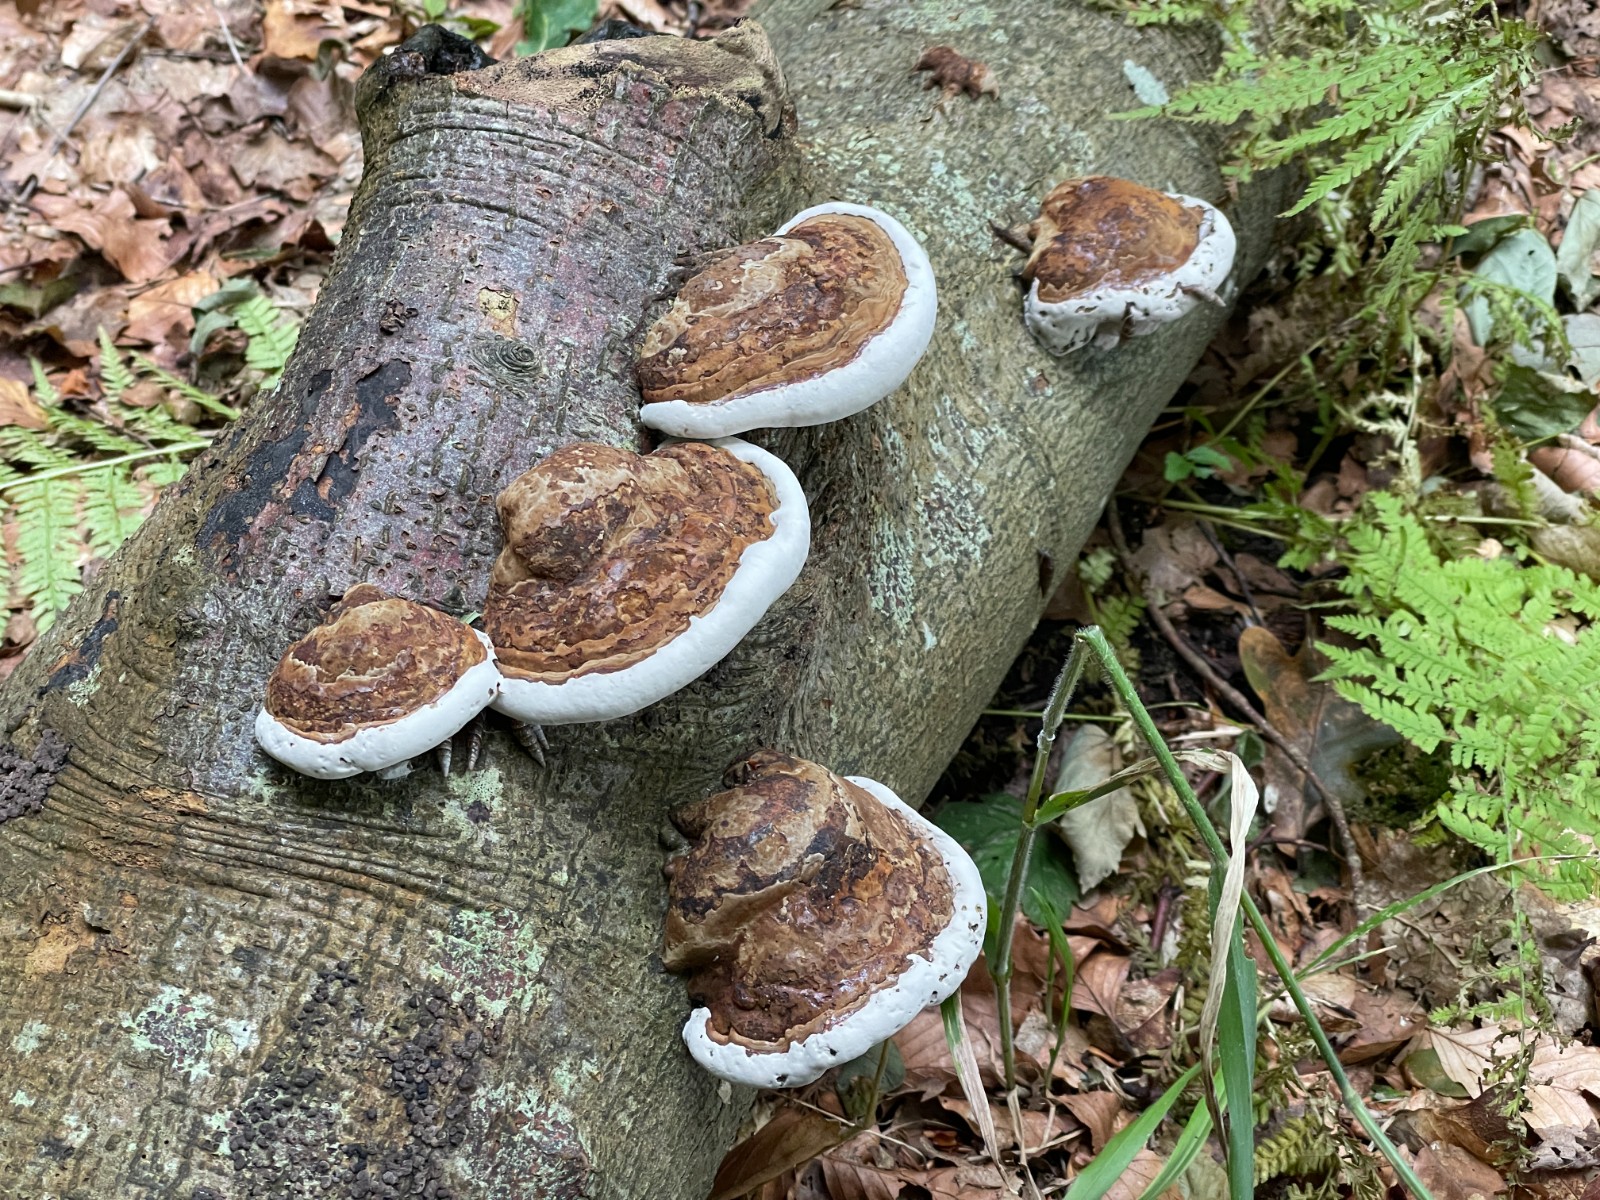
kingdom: Fungi
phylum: Basidiomycota
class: Agaricomycetes
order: Polyporales
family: Polyporaceae
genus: Fomes
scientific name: Fomes fomentarius
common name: tøndersvamp
